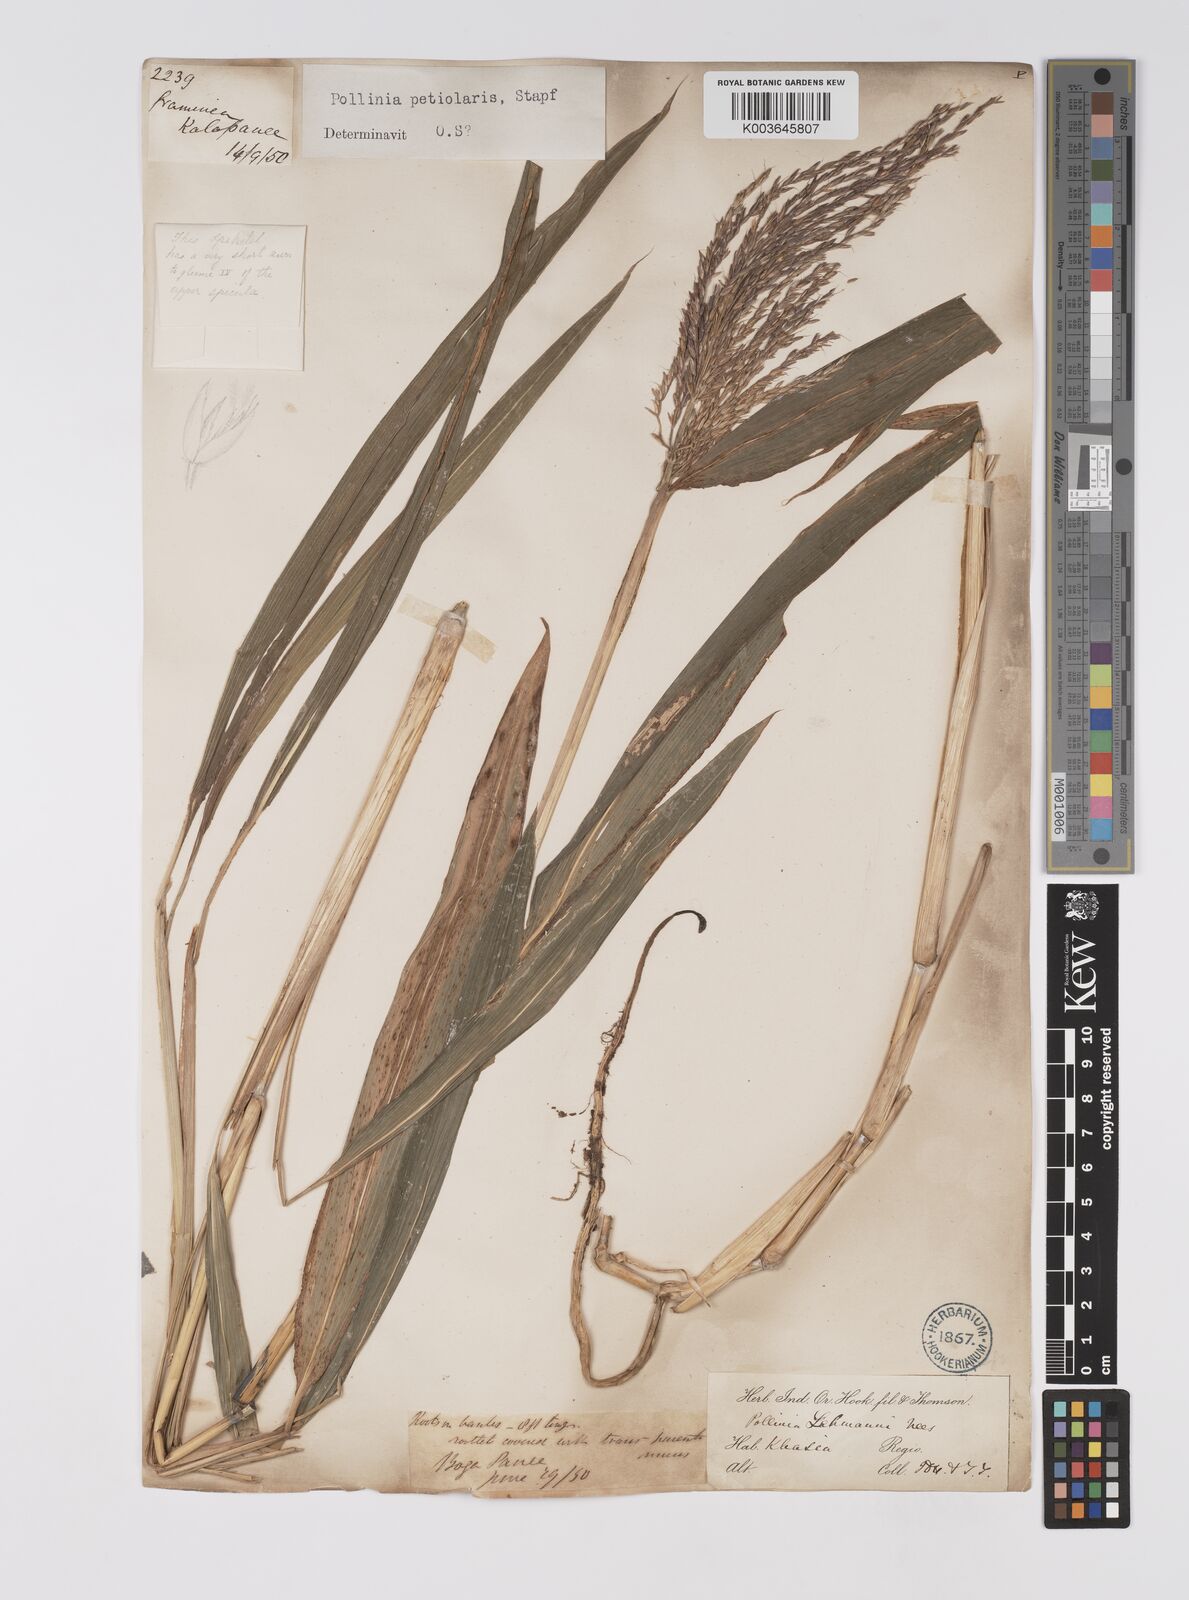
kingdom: Plantae
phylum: Tracheophyta
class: Liliopsida
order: Poales
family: Poaceae
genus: Microstegium
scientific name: Microstegium petiolare
